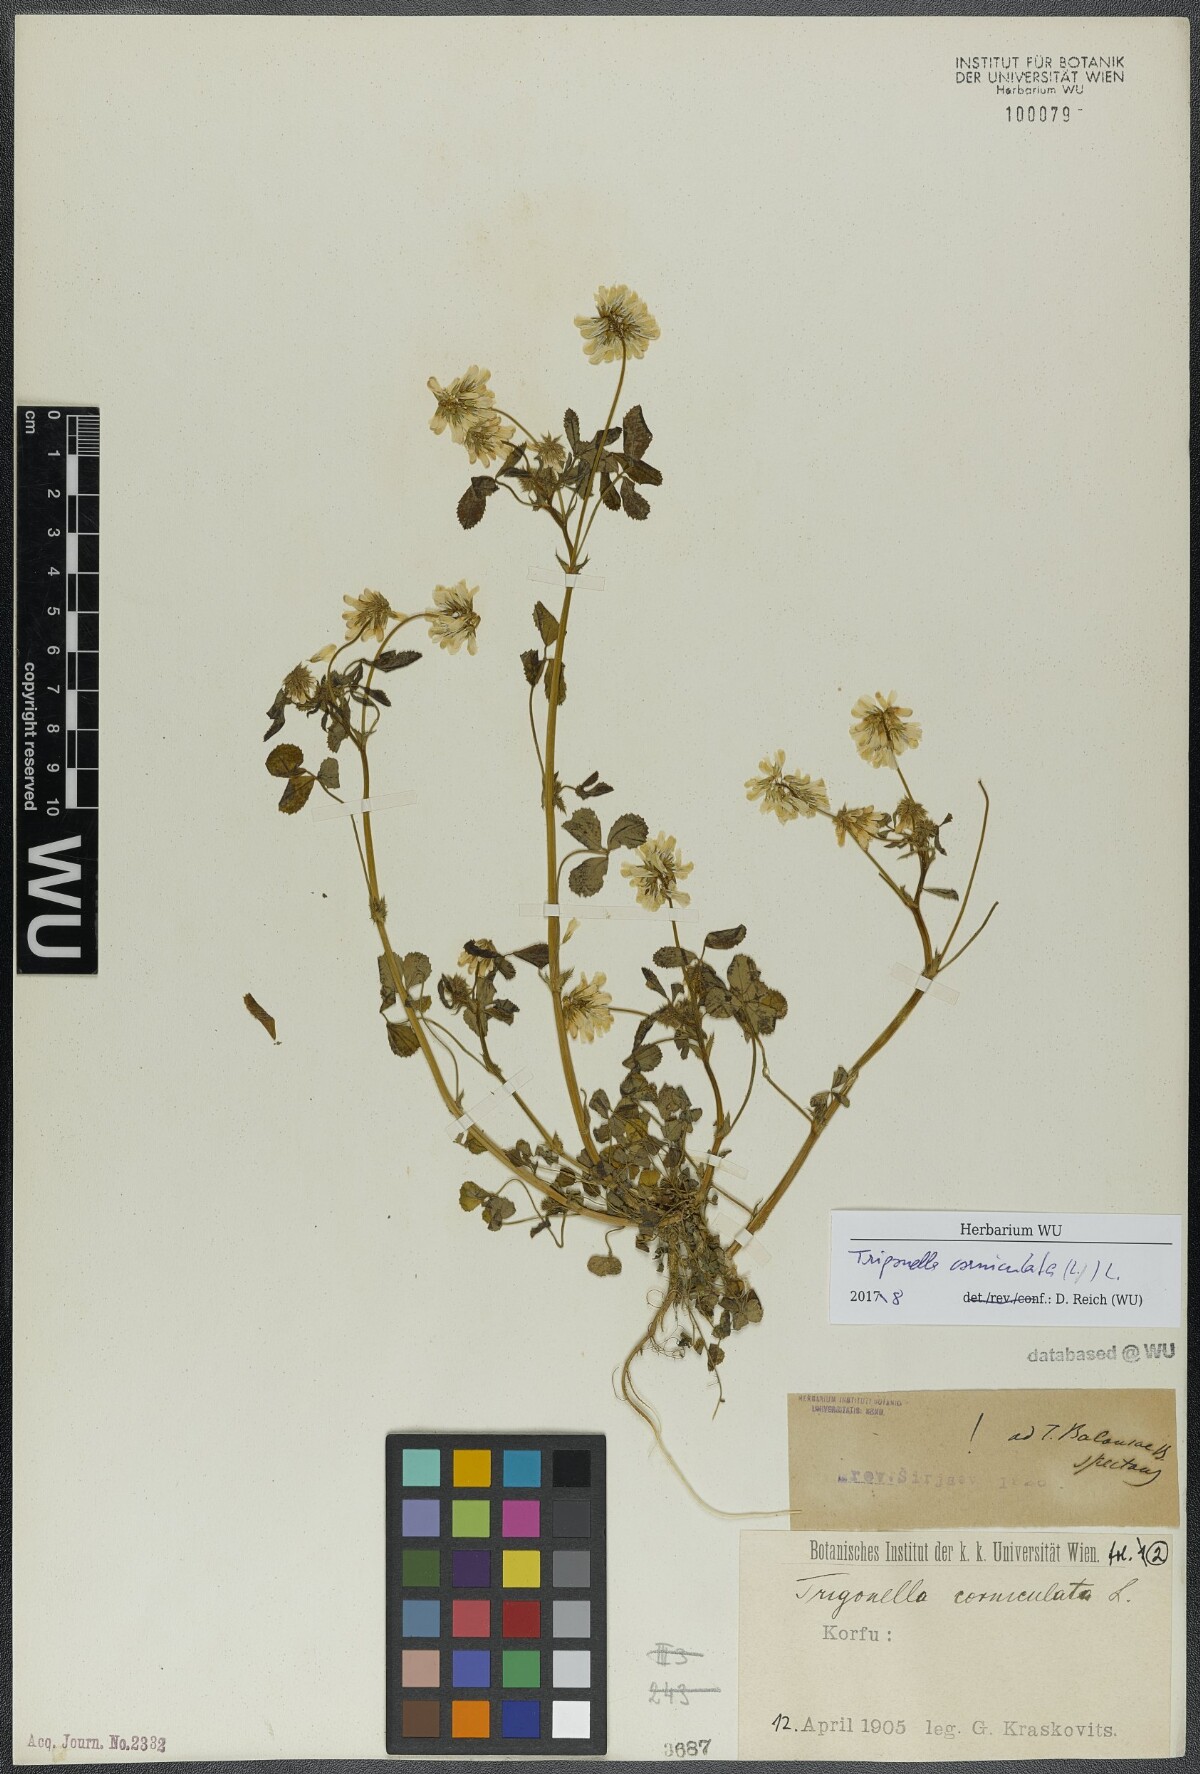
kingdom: Plantae
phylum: Tracheophyta
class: Magnoliopsida
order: Fabales
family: Fabaceae
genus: Trigonella
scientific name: Trigonella balansae
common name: Sickle-fruited fenugreek
